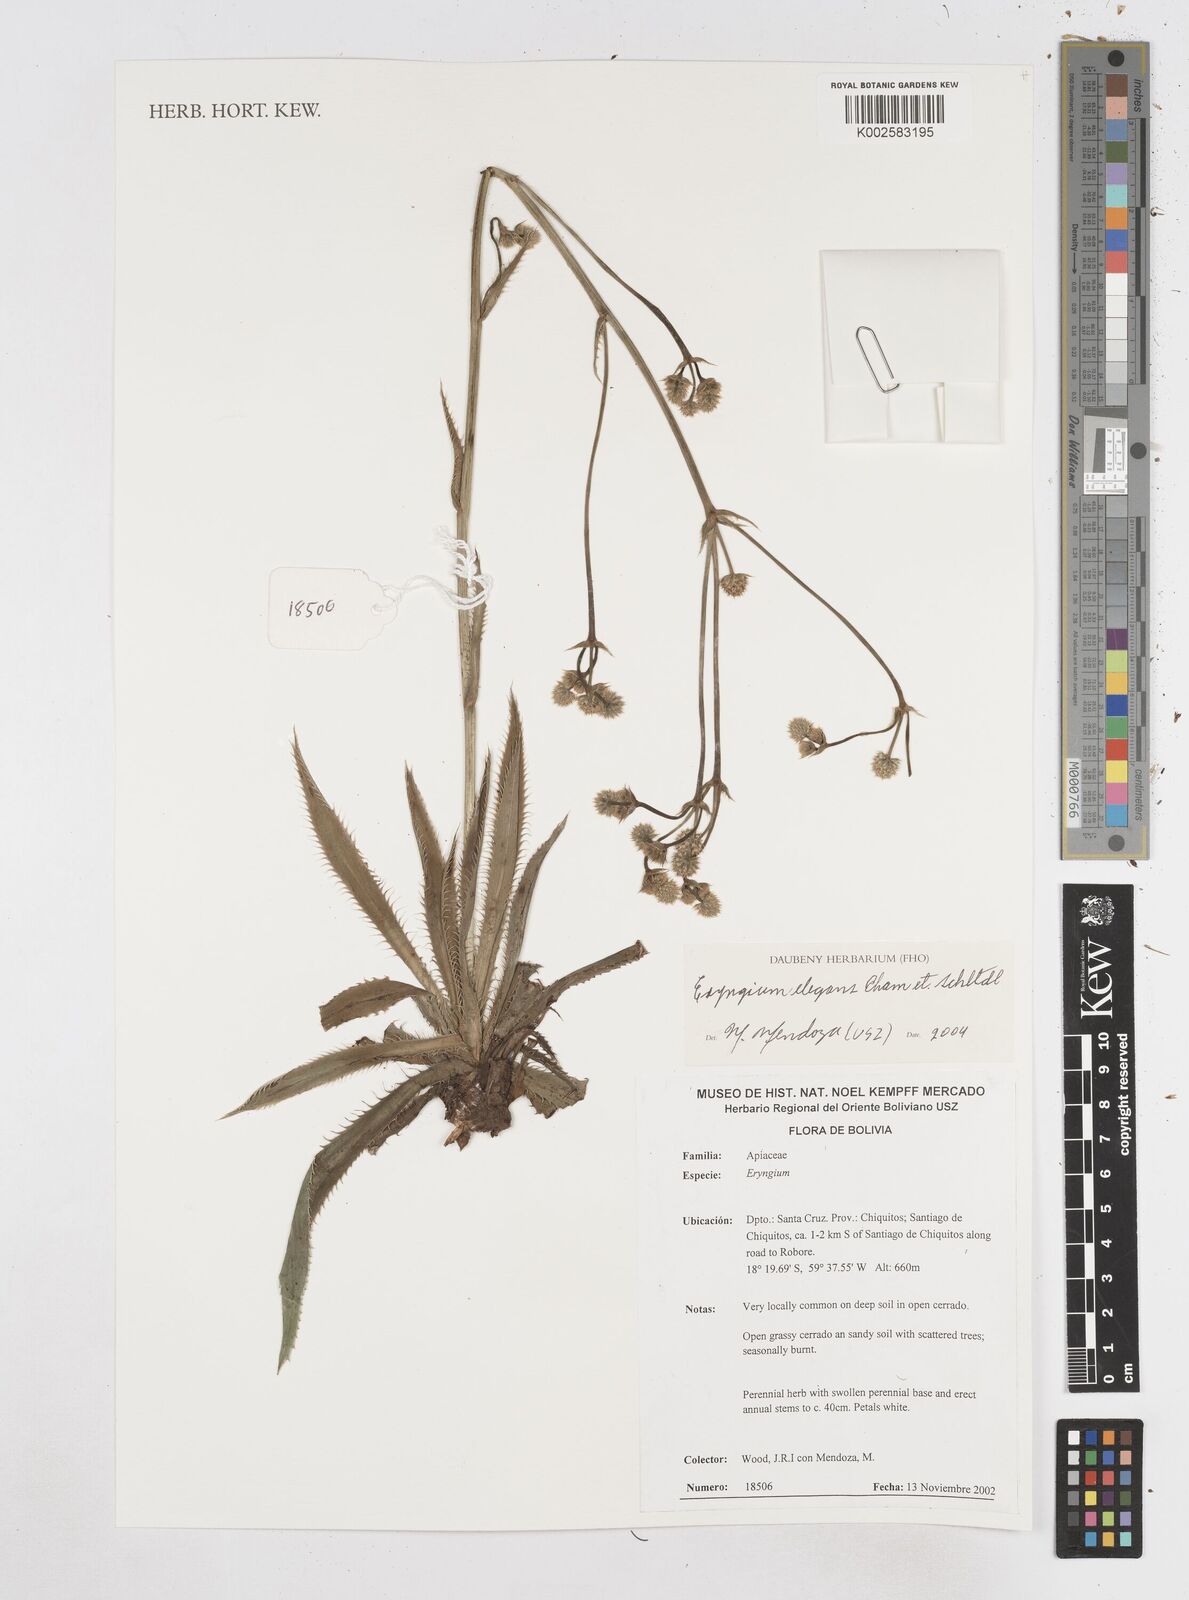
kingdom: Plantae
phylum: Tracheophyta
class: Magnoliopsida
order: Apiales
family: Apiaceae
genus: Eryngium
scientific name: Eryngium elegans
